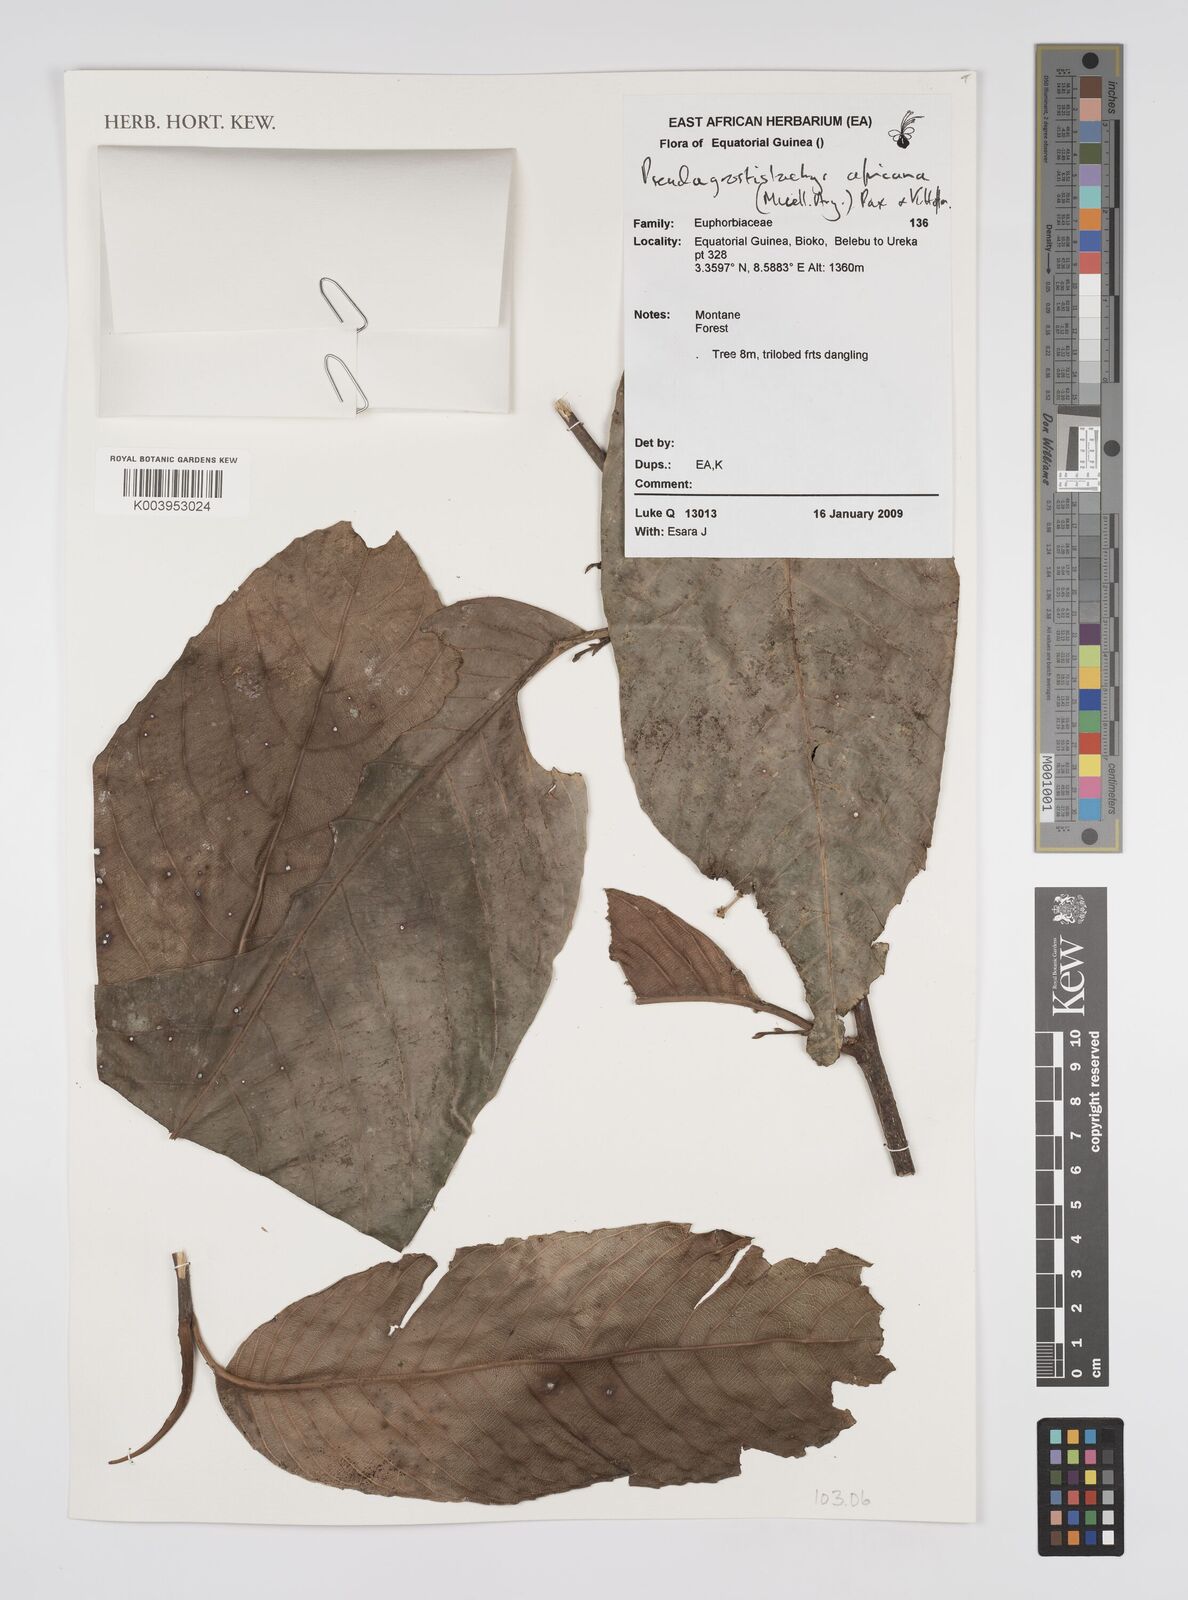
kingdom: Plantae
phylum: Tracheophyta
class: Magnoliopsida
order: Malpighiales
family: Euphorbiaceae
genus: Pseudagrostistachys
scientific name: Pseudagrostistachys africana
